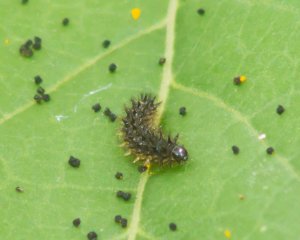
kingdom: Animalia
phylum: Arthropoda
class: Insecta
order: Lepidoptera
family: Nymphalidae
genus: Chlosyne
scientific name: Chlosyne nycteis
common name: Silvery Checkerspot
